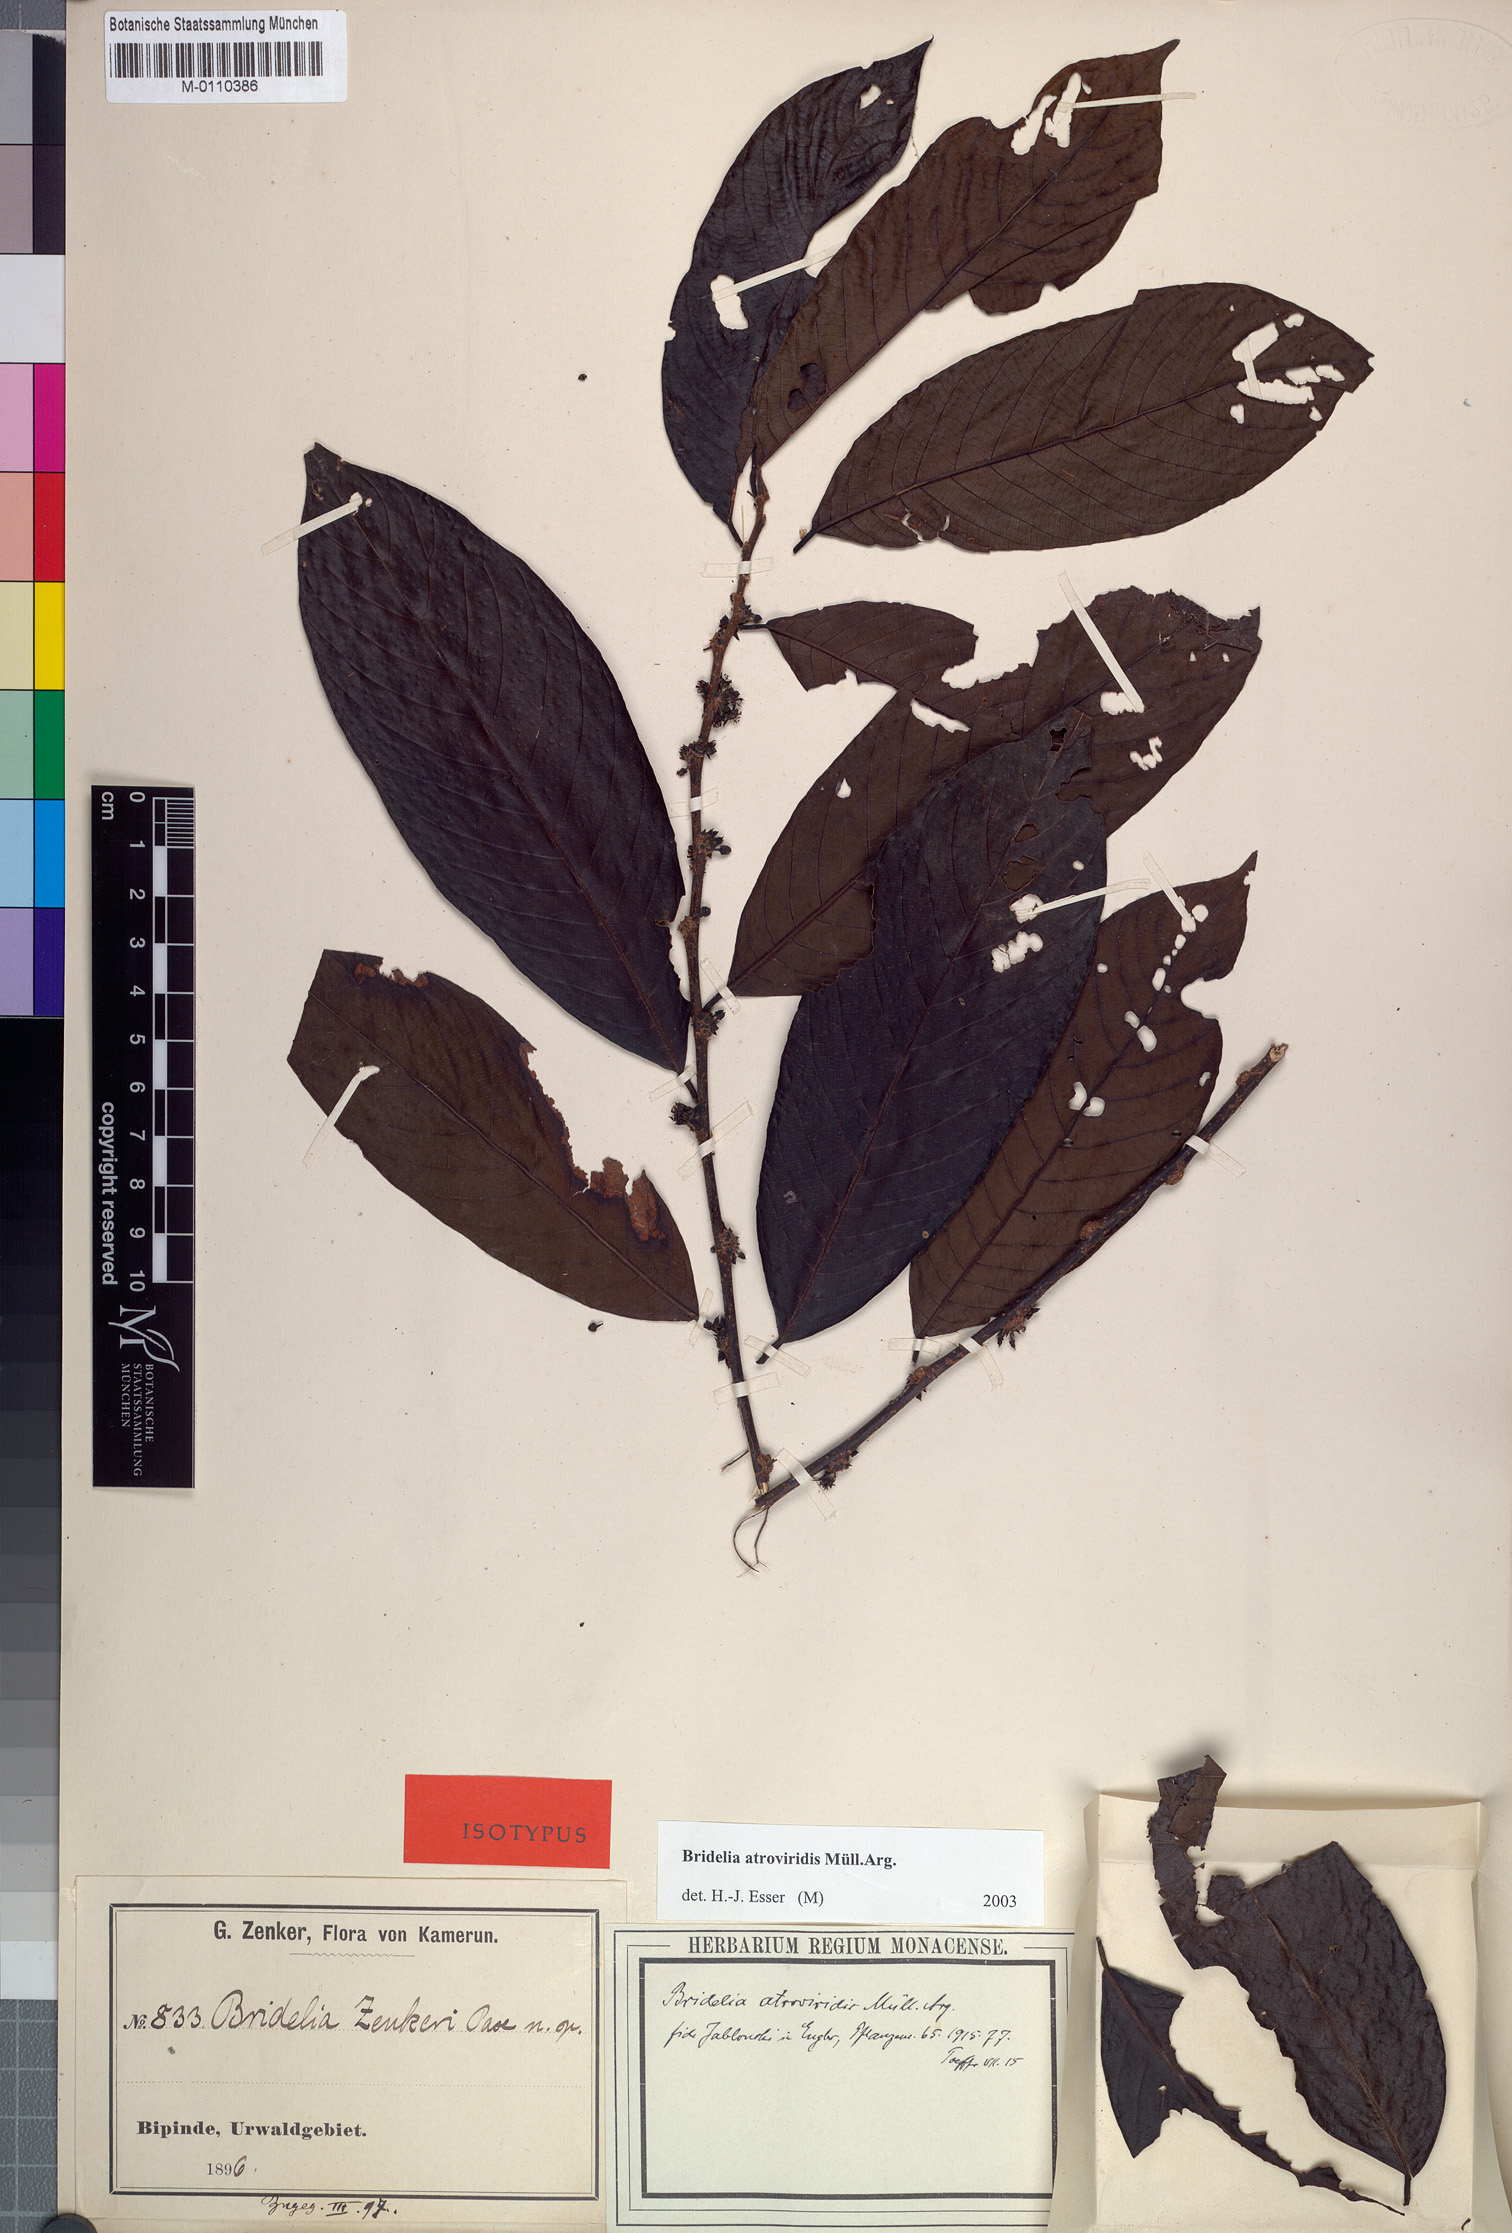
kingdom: Plantae
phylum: Tracheophyta
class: Magnoliopsida
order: Malpighiales
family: Phyllanthaceae
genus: Bridelia
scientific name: Bridelia atroviridis
